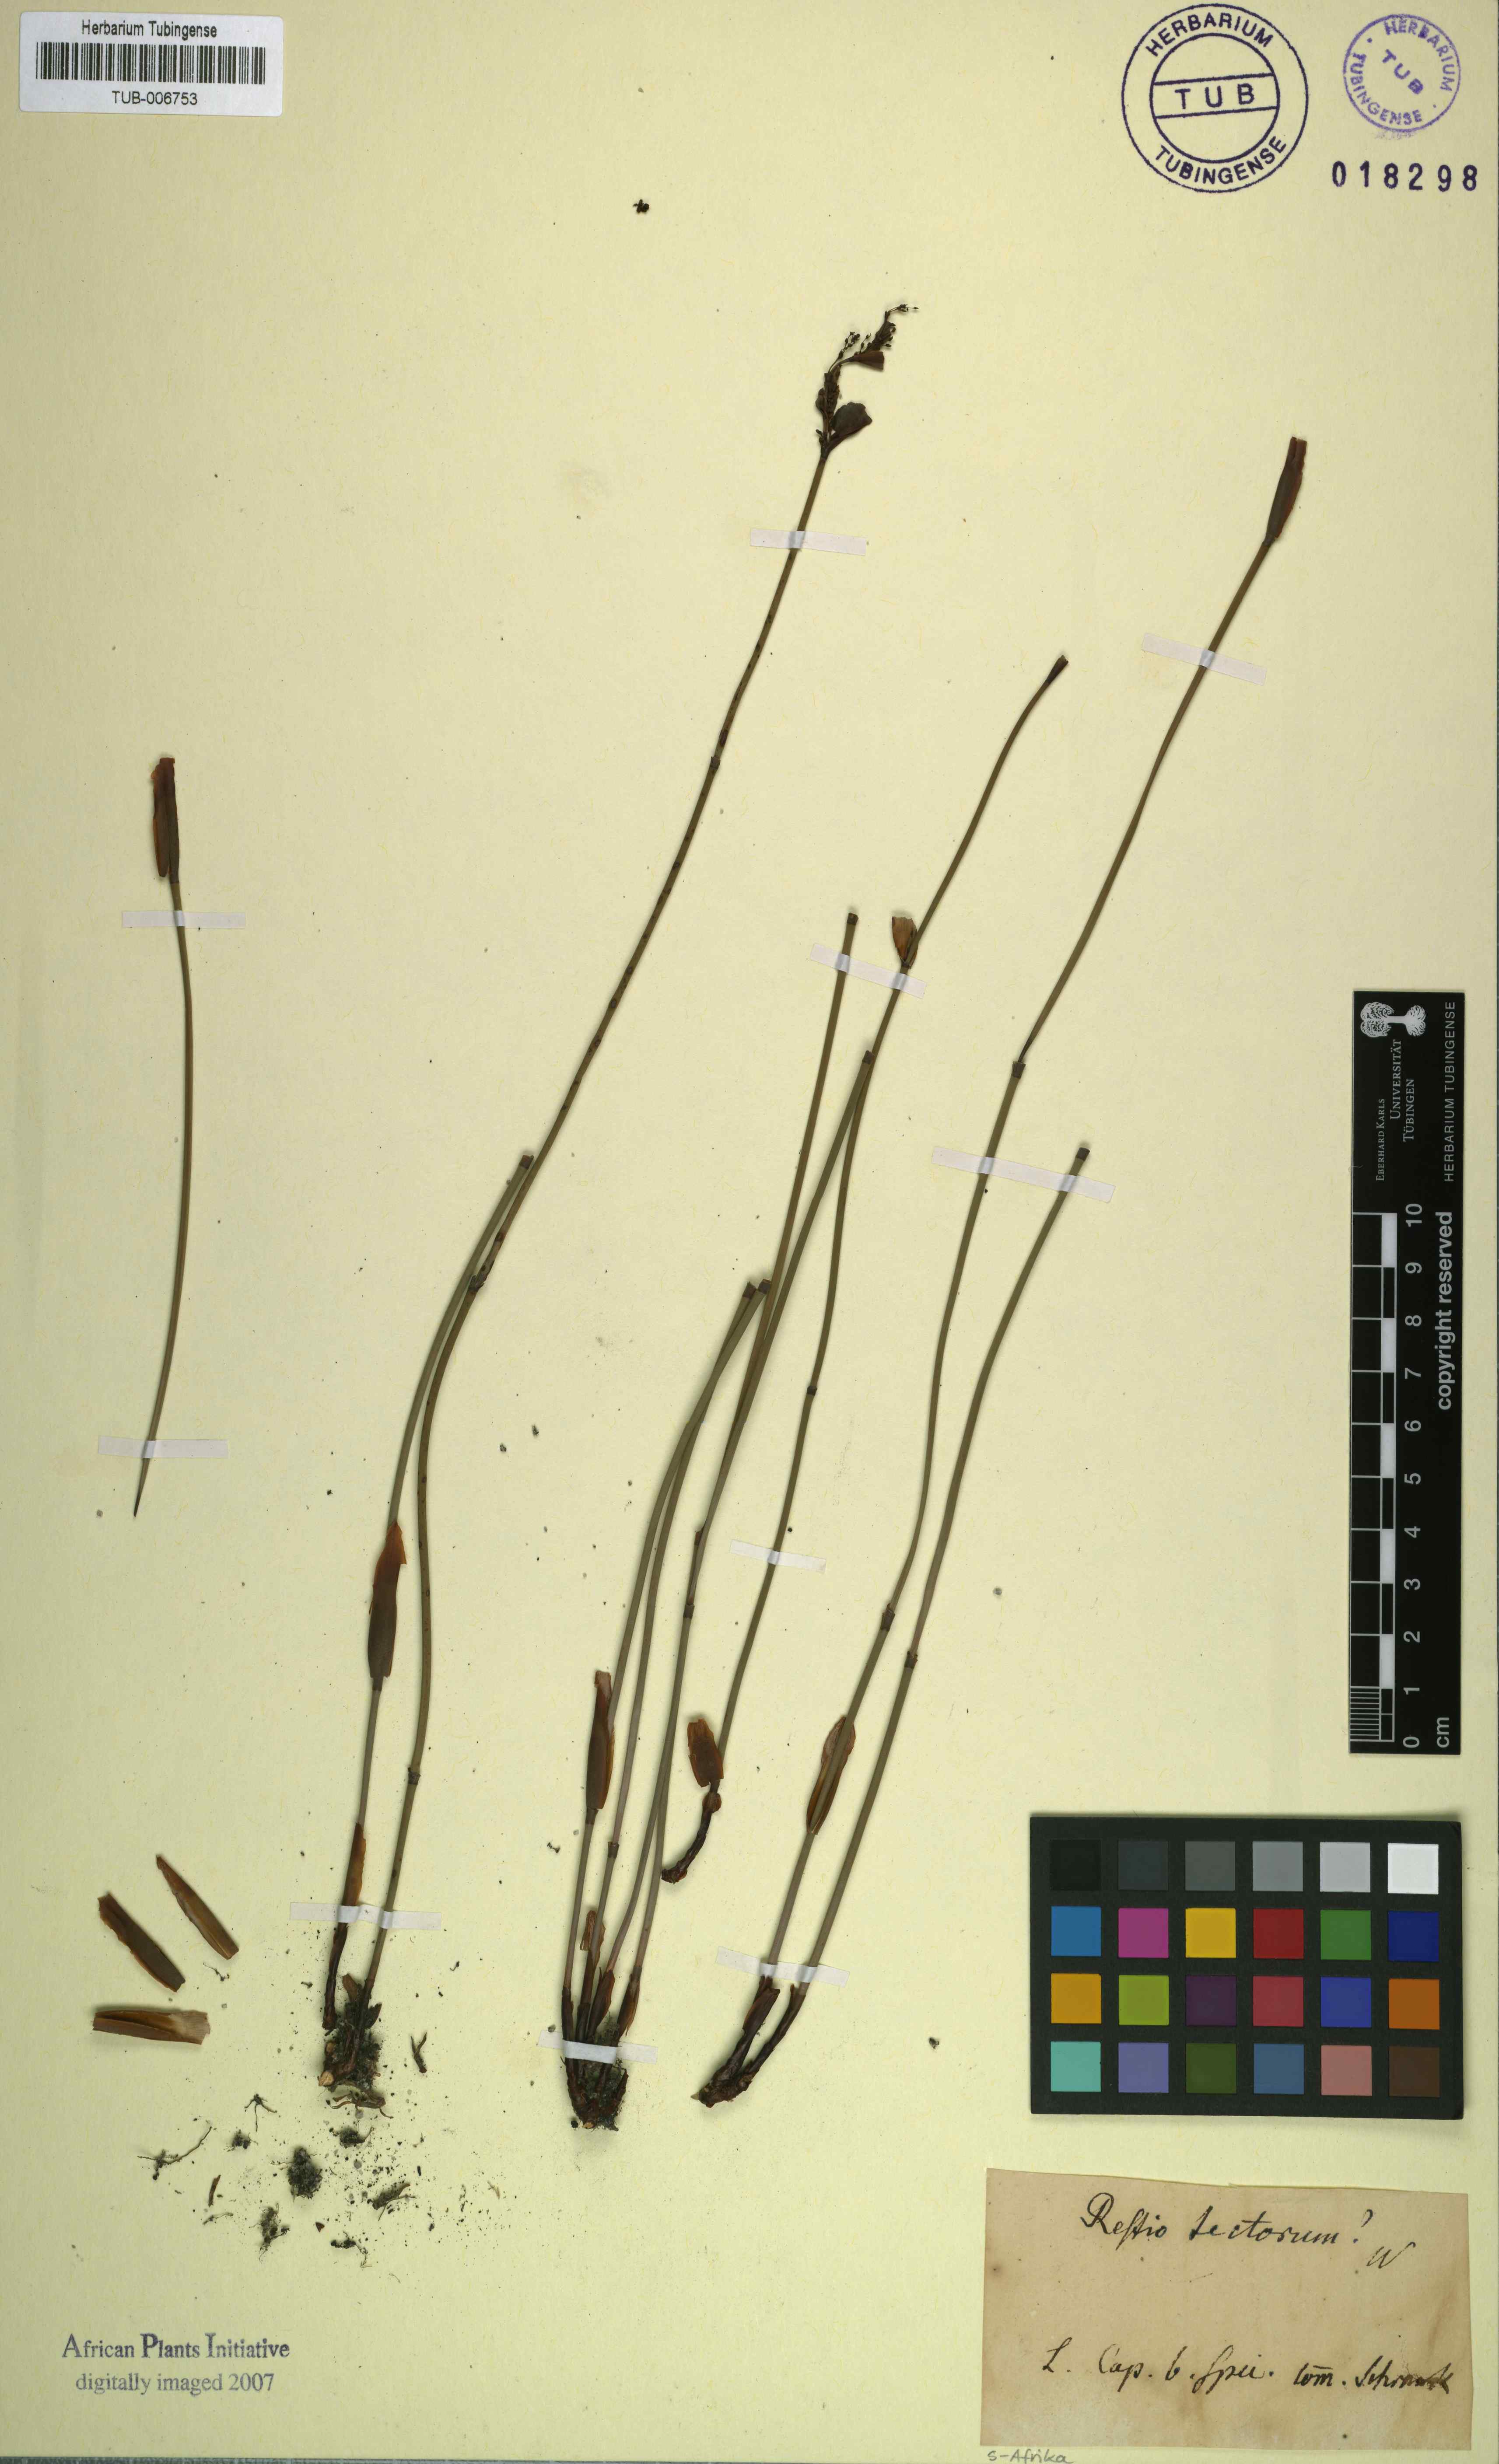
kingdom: Plantae
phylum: Tracheophyta
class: Liliopsida
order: Poales
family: Restionaceae
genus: Elegia
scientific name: Elegia tectorum
